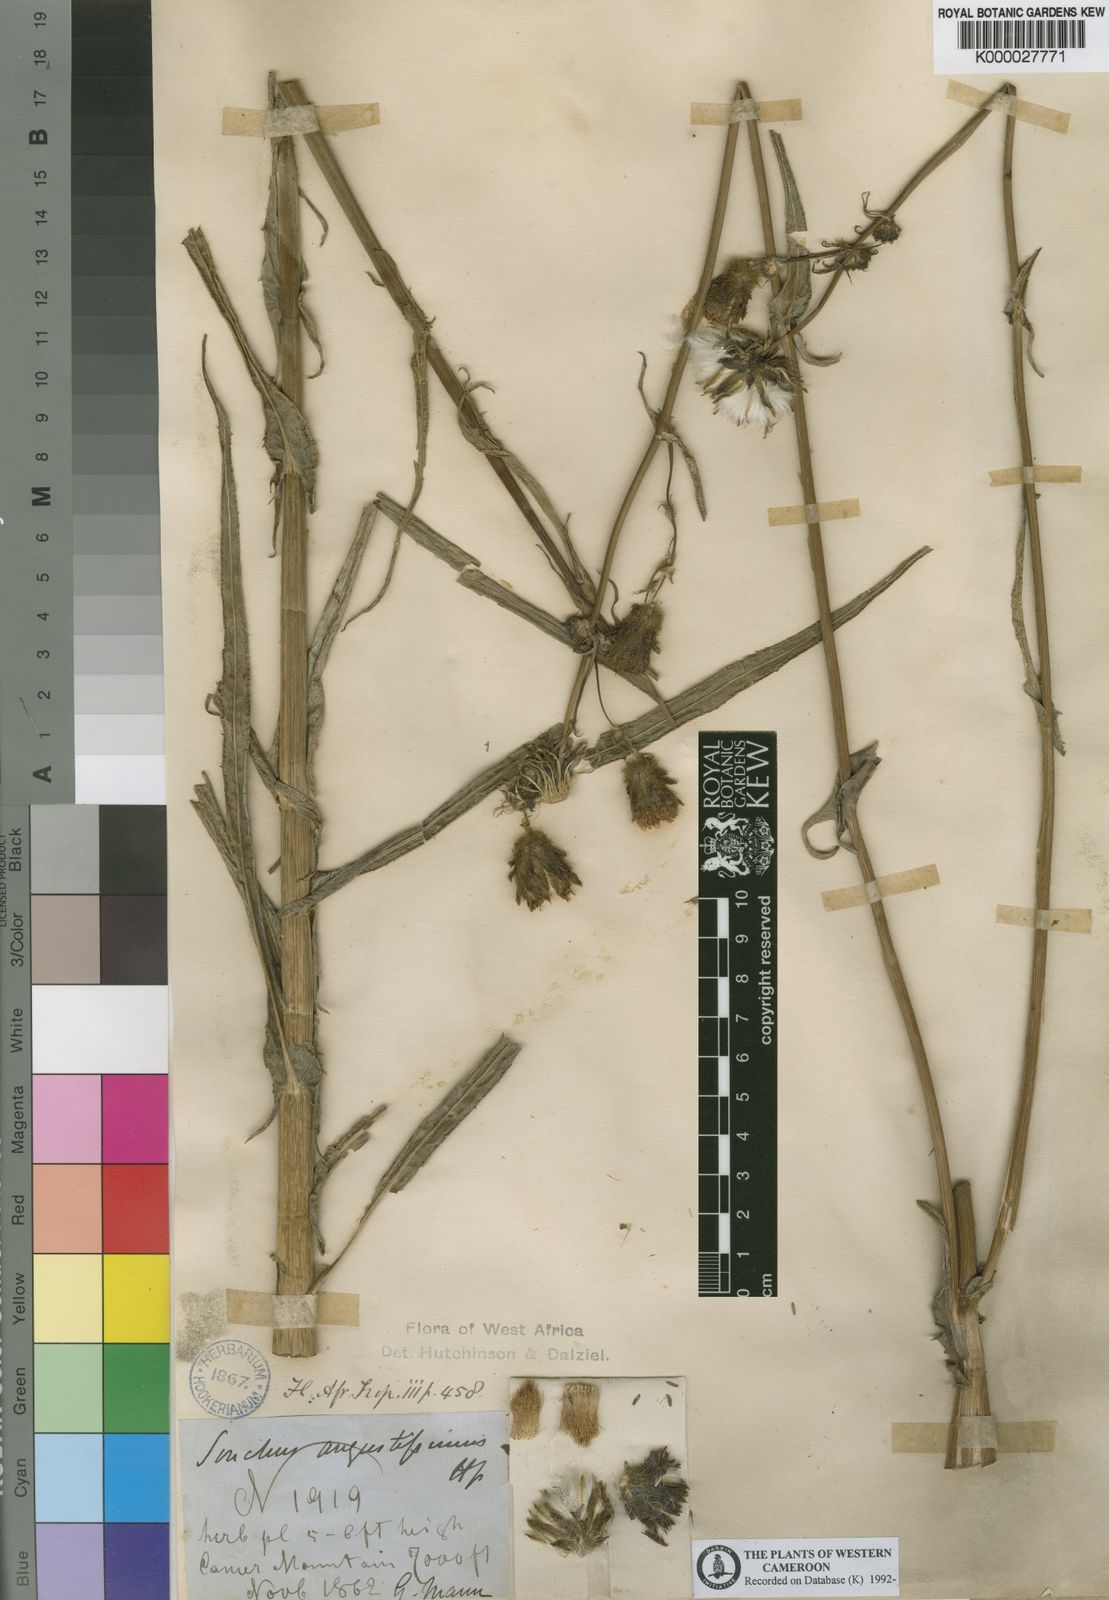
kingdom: Plantae
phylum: Tracheophyta
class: Magnoliopsida
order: Asterales
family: Asteraceae
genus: Sonchus
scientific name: Sonchus angustissimus
